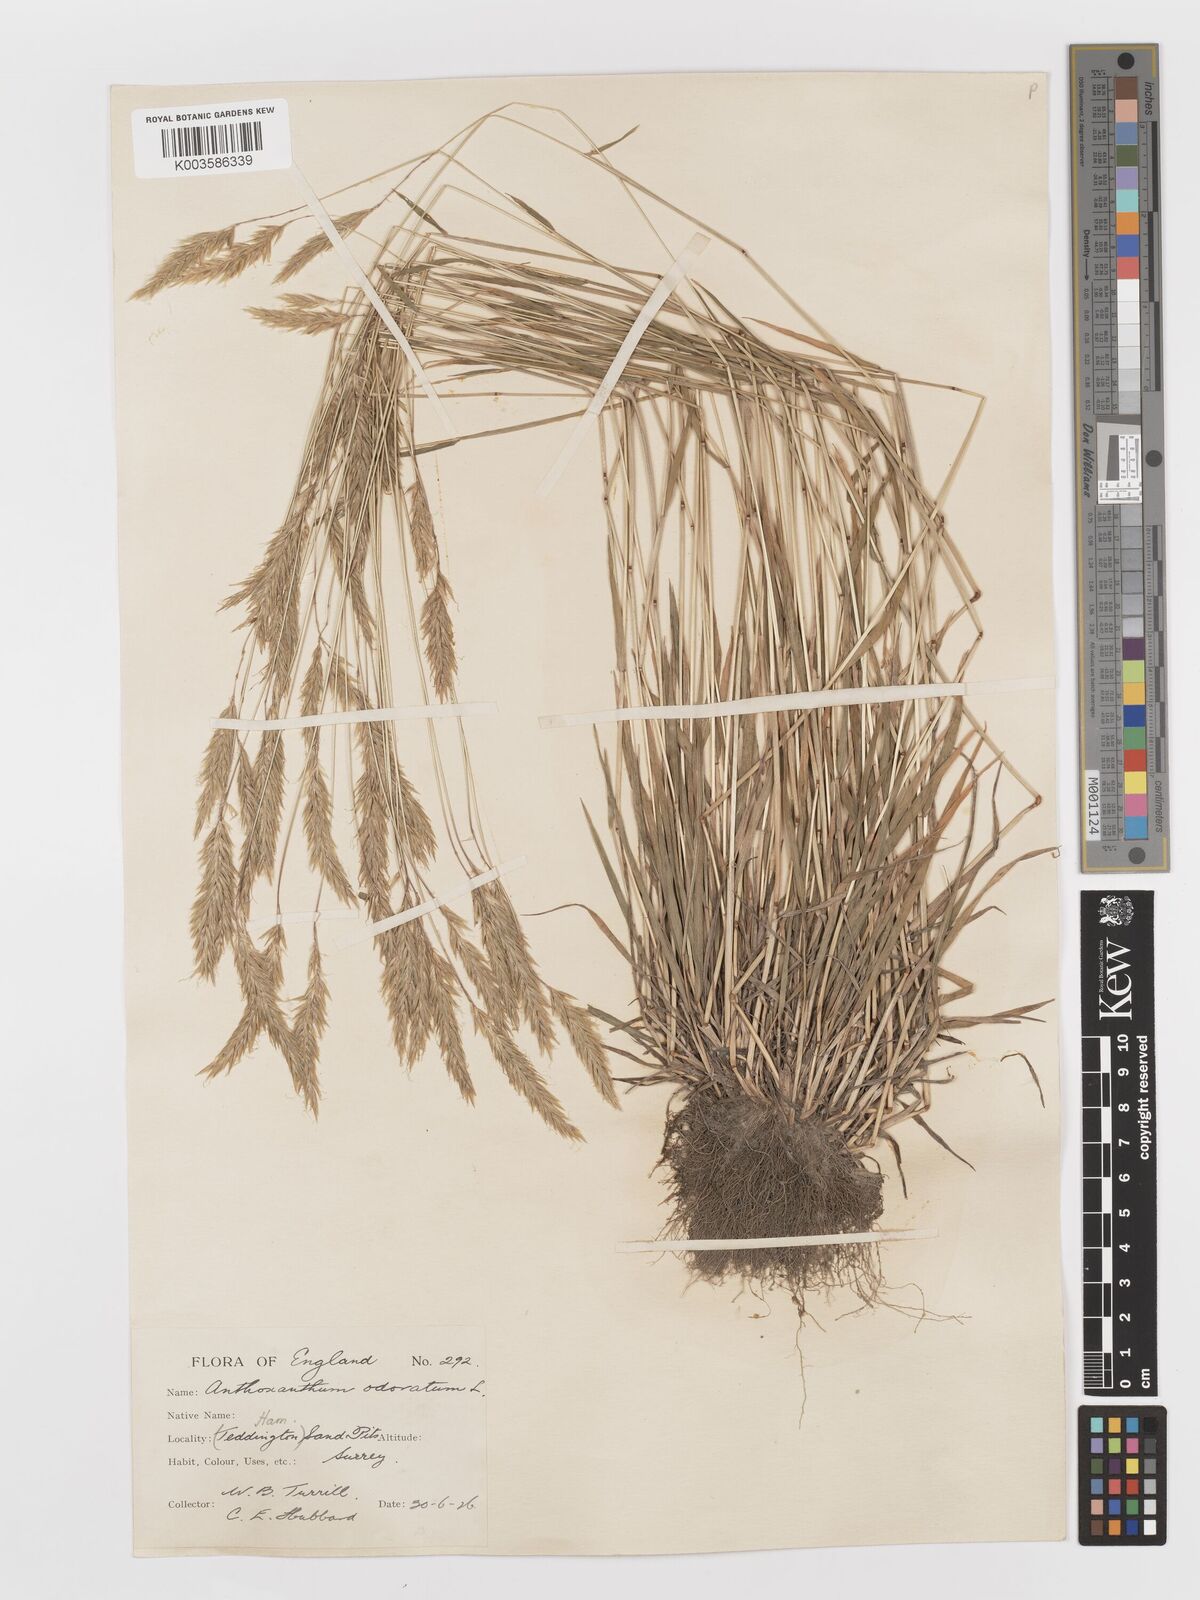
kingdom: Plantae
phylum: Tracheophyta
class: Liliopsida
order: Poales
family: Poaceae
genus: Anthoxanthum
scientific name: Anthoxanthum odoratum
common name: Sweet vernalgrass
